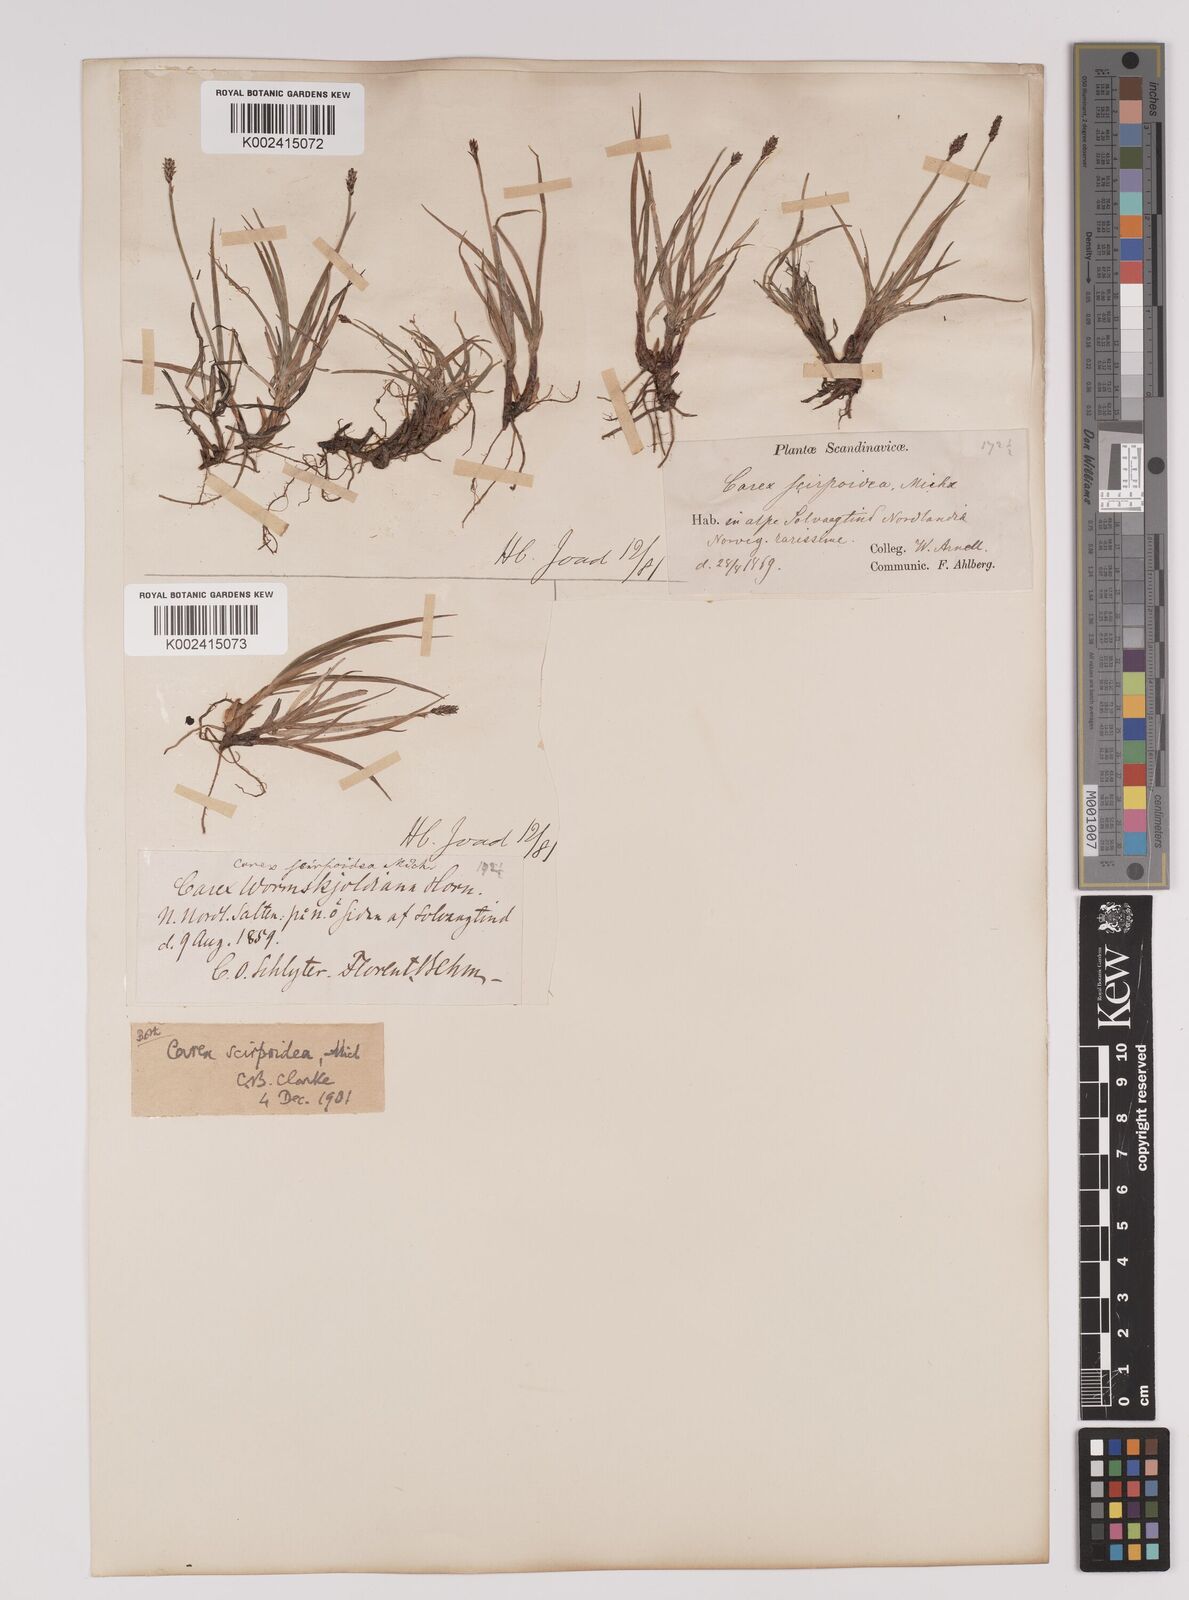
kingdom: Plantae
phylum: Tracheophyta
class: Liliopsida
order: Poales
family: Cyperaceae
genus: Carex
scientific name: Carex
